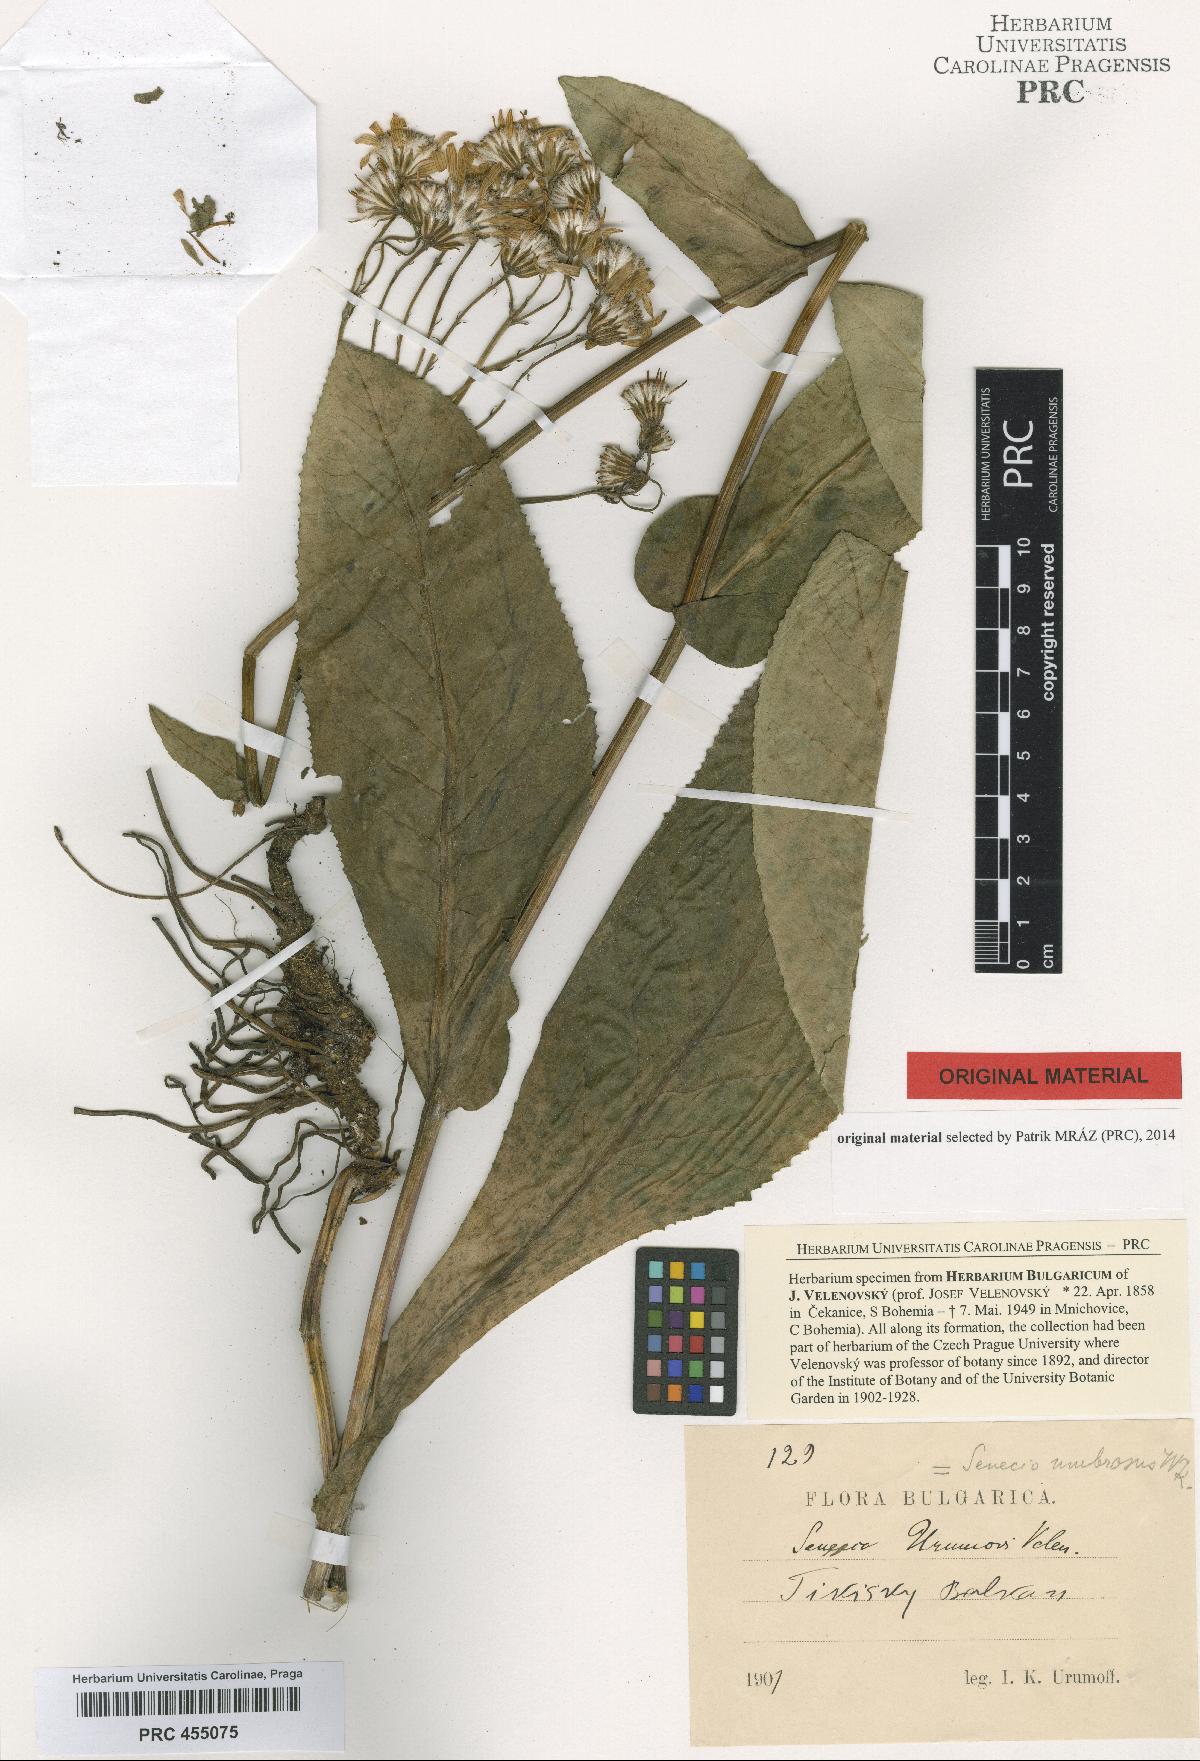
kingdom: Plantae
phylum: Tracheophyta
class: Magnoliopsida
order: Asterales
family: Asteraceae
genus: Senecio
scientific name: Senecio umbrosus
